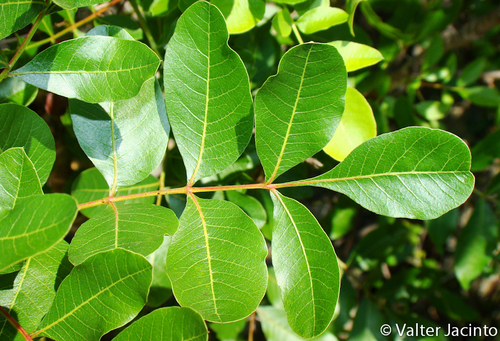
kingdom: Plantae
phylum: Tracheophyta
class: Magnoliopsida
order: Sapindales
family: Anacardiaceae
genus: Pistacia
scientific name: Pistacia terebinthus
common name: Terebinth
